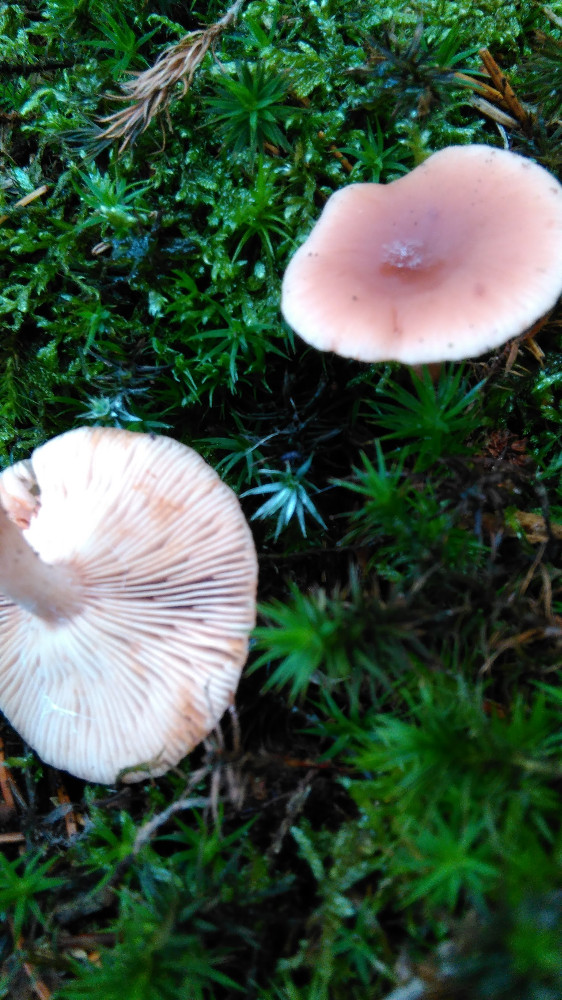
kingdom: Fungi
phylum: Basidiomycota
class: Agaricomycetes
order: Russulales
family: Russulaceae
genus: Lactarius
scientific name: Lactarius tabidus
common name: rynket mælkehat
